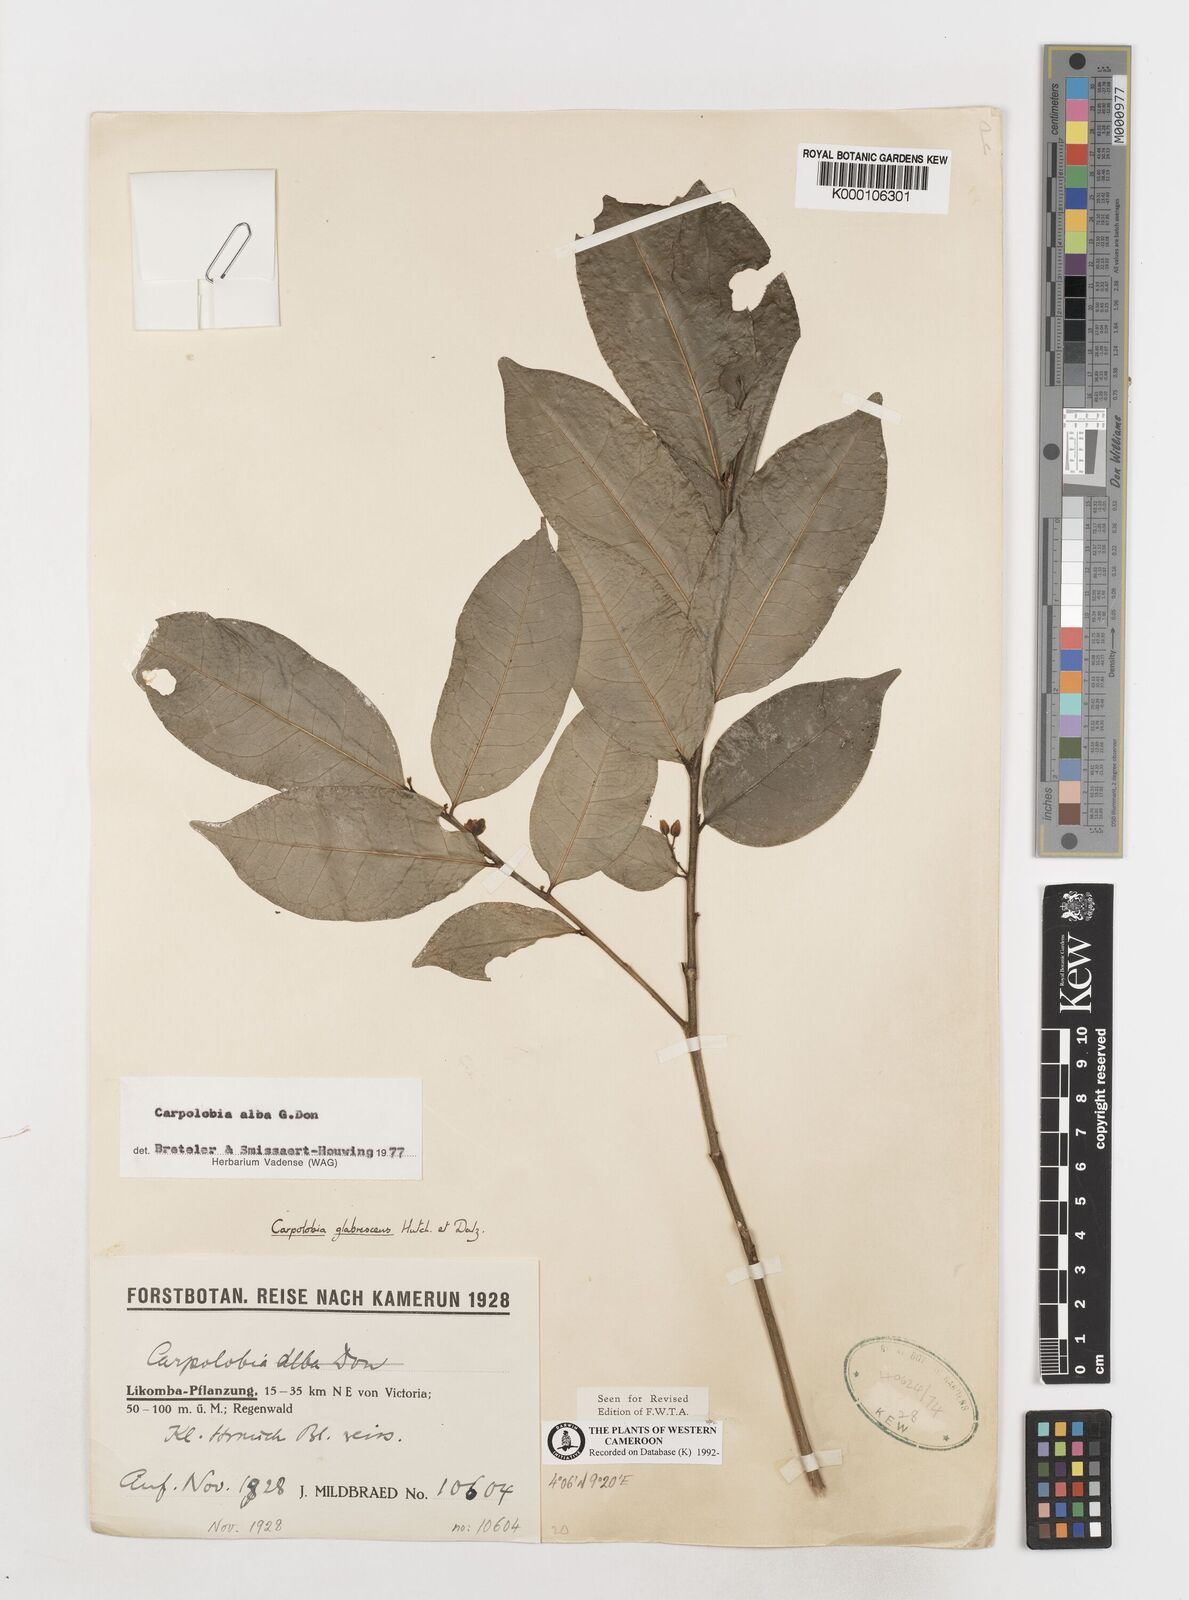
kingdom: Plantae
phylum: Tracheophyta
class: Magnoliopsida
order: Fabales
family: Polygalaceae
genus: Carpolobia
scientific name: Carpolobia alba
